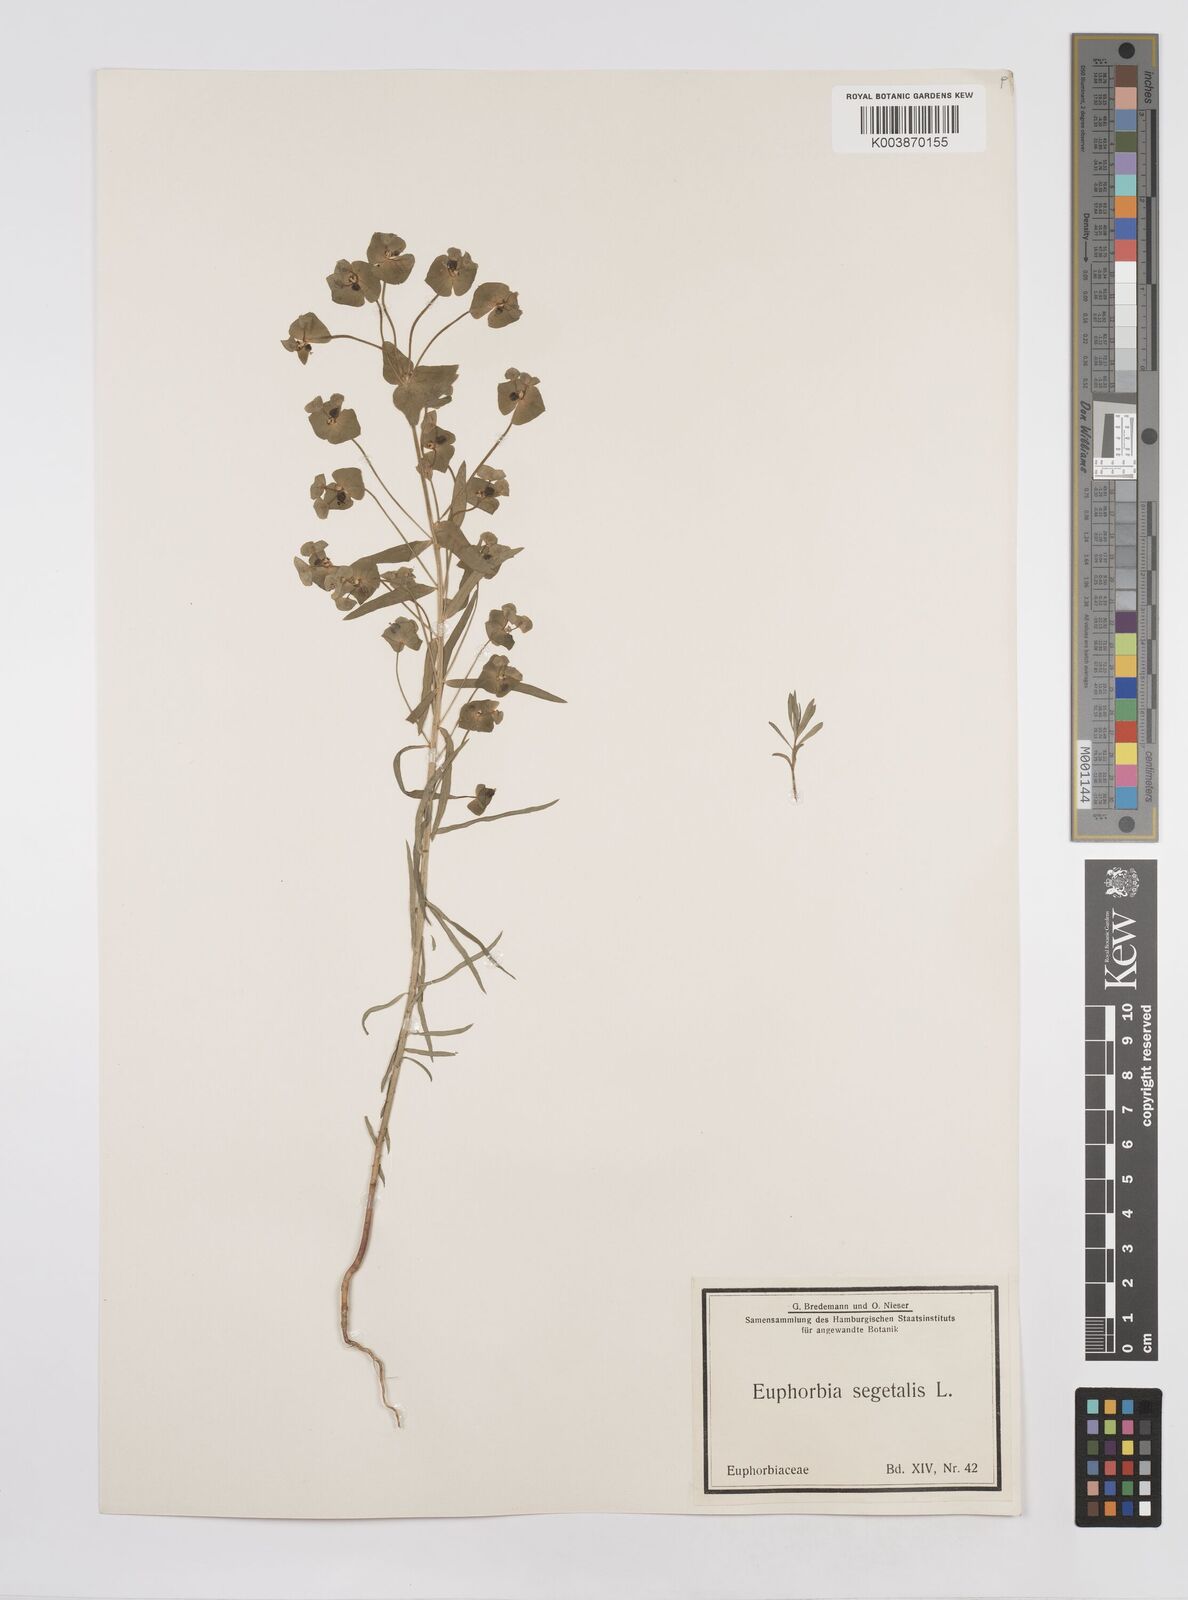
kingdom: Plantae
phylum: Tracheophyta
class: Magnoliopsida
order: Malpighiales
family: Euphorbiaceae
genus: Euphorbia
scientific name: Euphorbia segetalis
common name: Corn spurge
